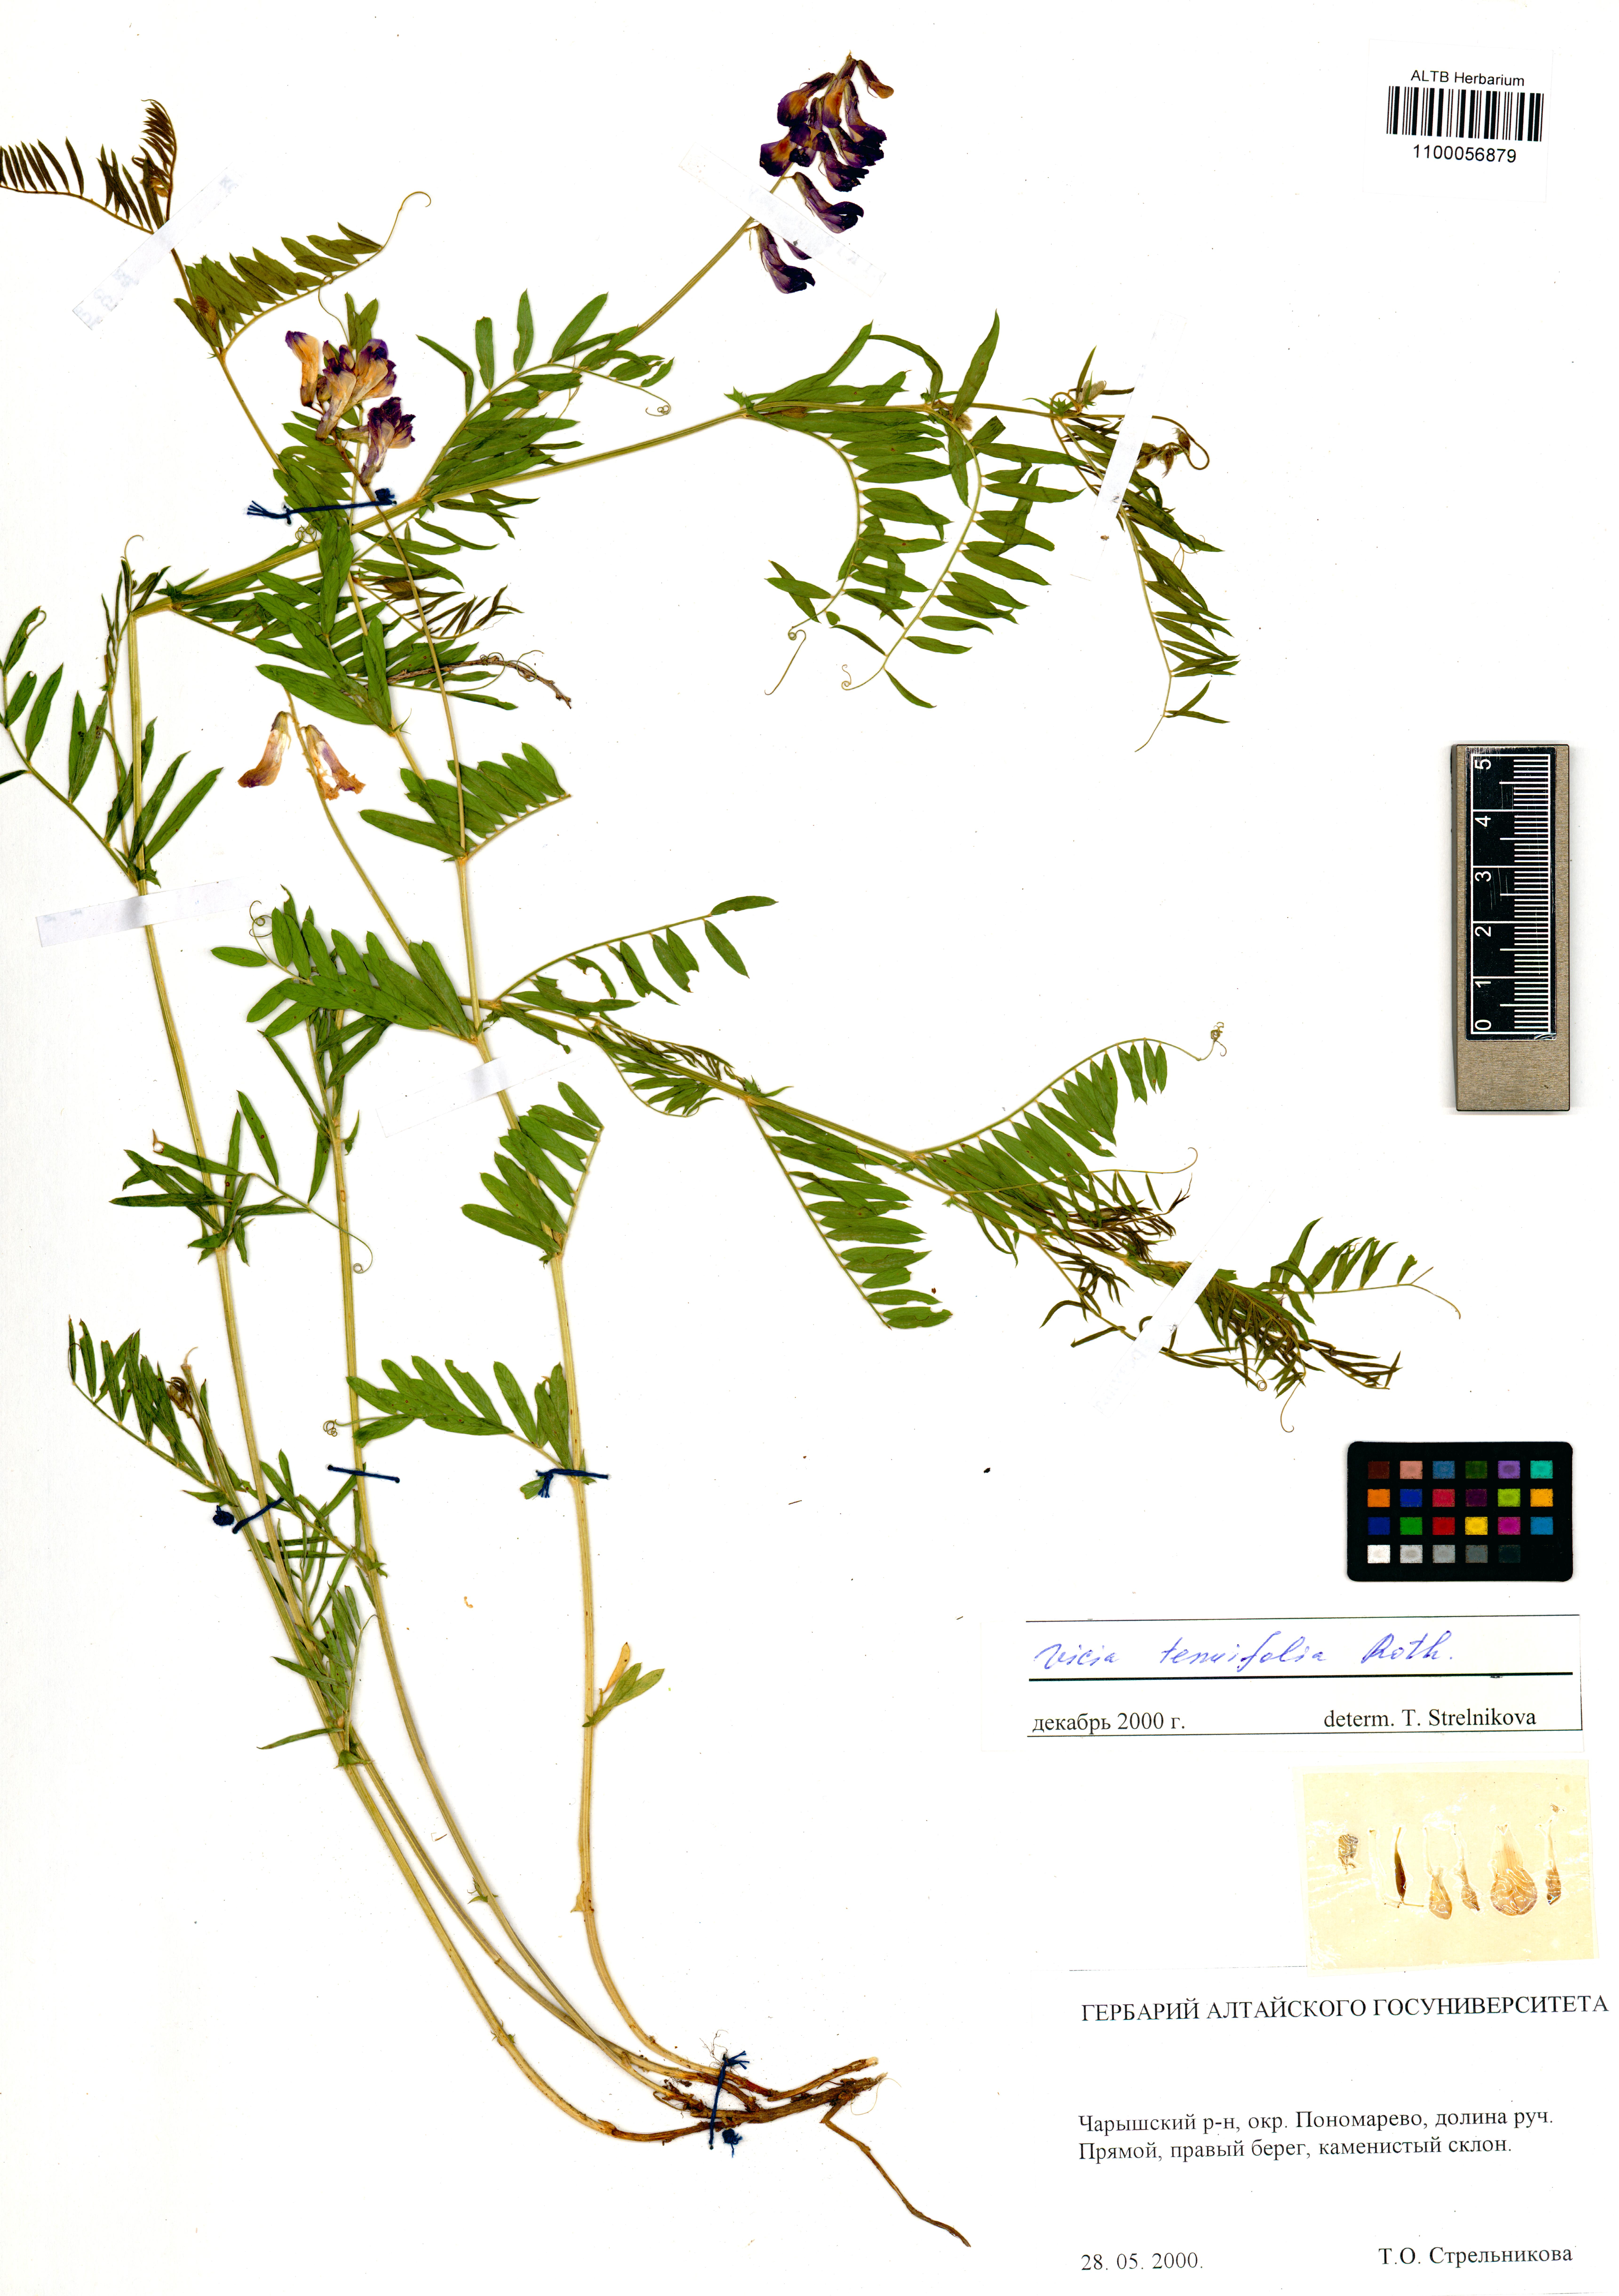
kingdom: Plantae
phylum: Tracheophyta
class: Magnoliopsida
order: Fabales
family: Fabaceae
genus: Vicia
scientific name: Vicia tenuifolia
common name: Fine-leaved vetch
